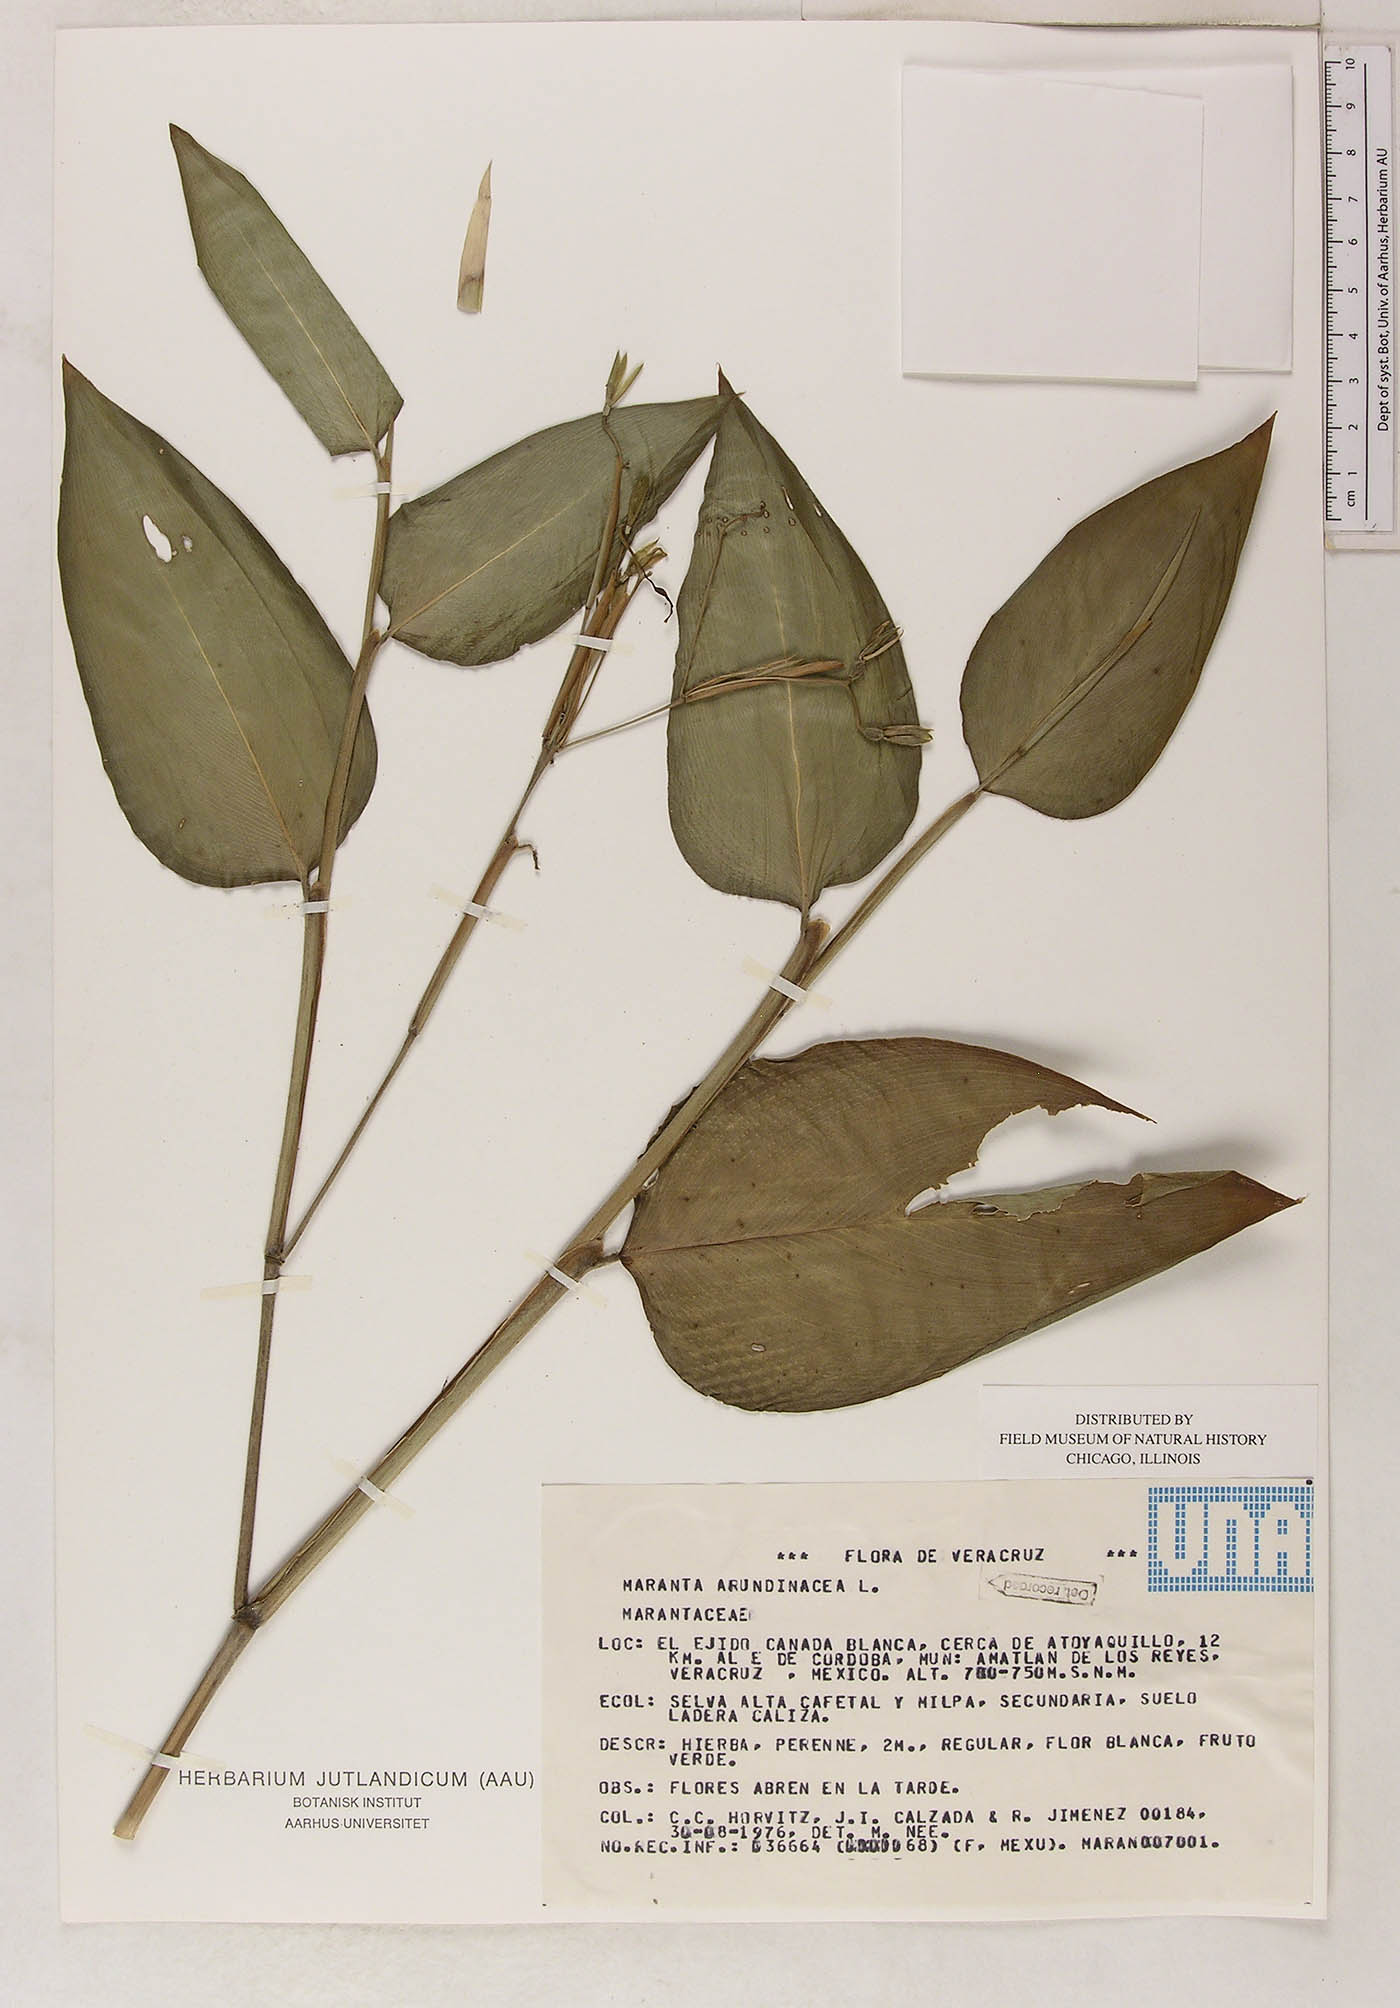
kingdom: Plantae
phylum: Tracheophyta
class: Liliopsida
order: Zingiberales
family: Marantaceae
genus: Maranta
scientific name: Maranta arundinacea
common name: Arrowroot
